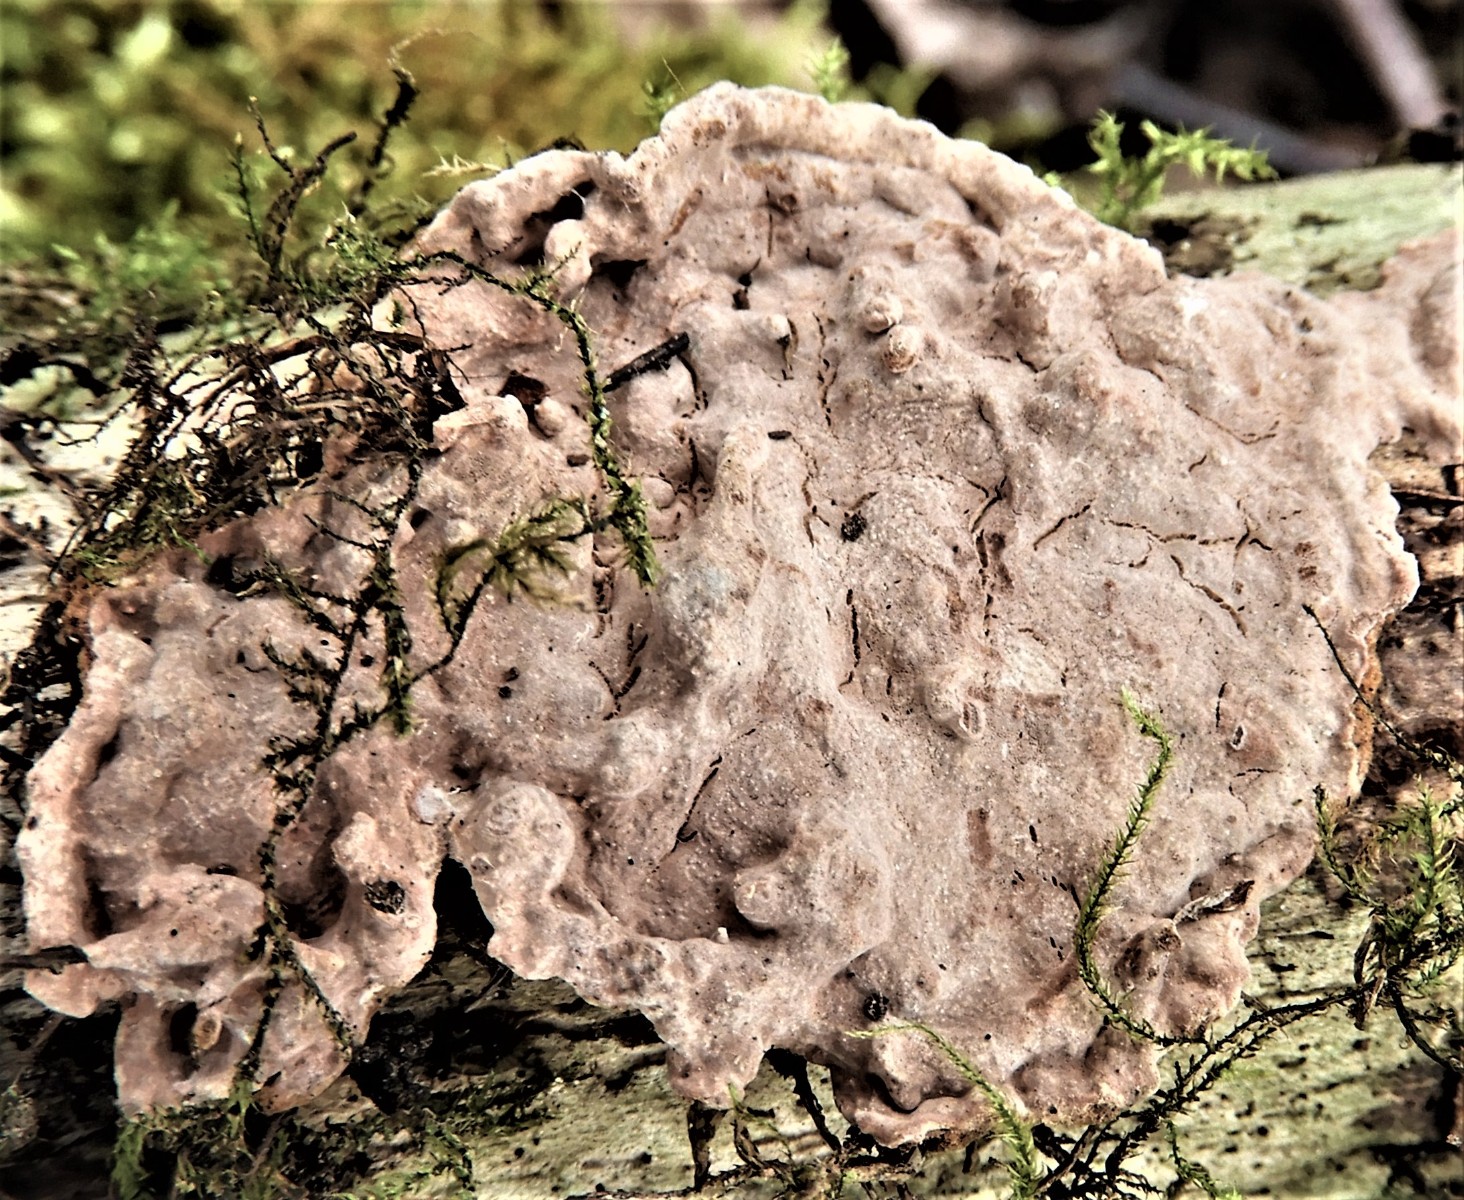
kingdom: Fungi
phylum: Basidiomycota
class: Agaricomycetes
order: Russulales
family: Echinodontiaceae
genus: Amylostereum
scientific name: Amylostereum chailletii
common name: gran-lædersvamp
